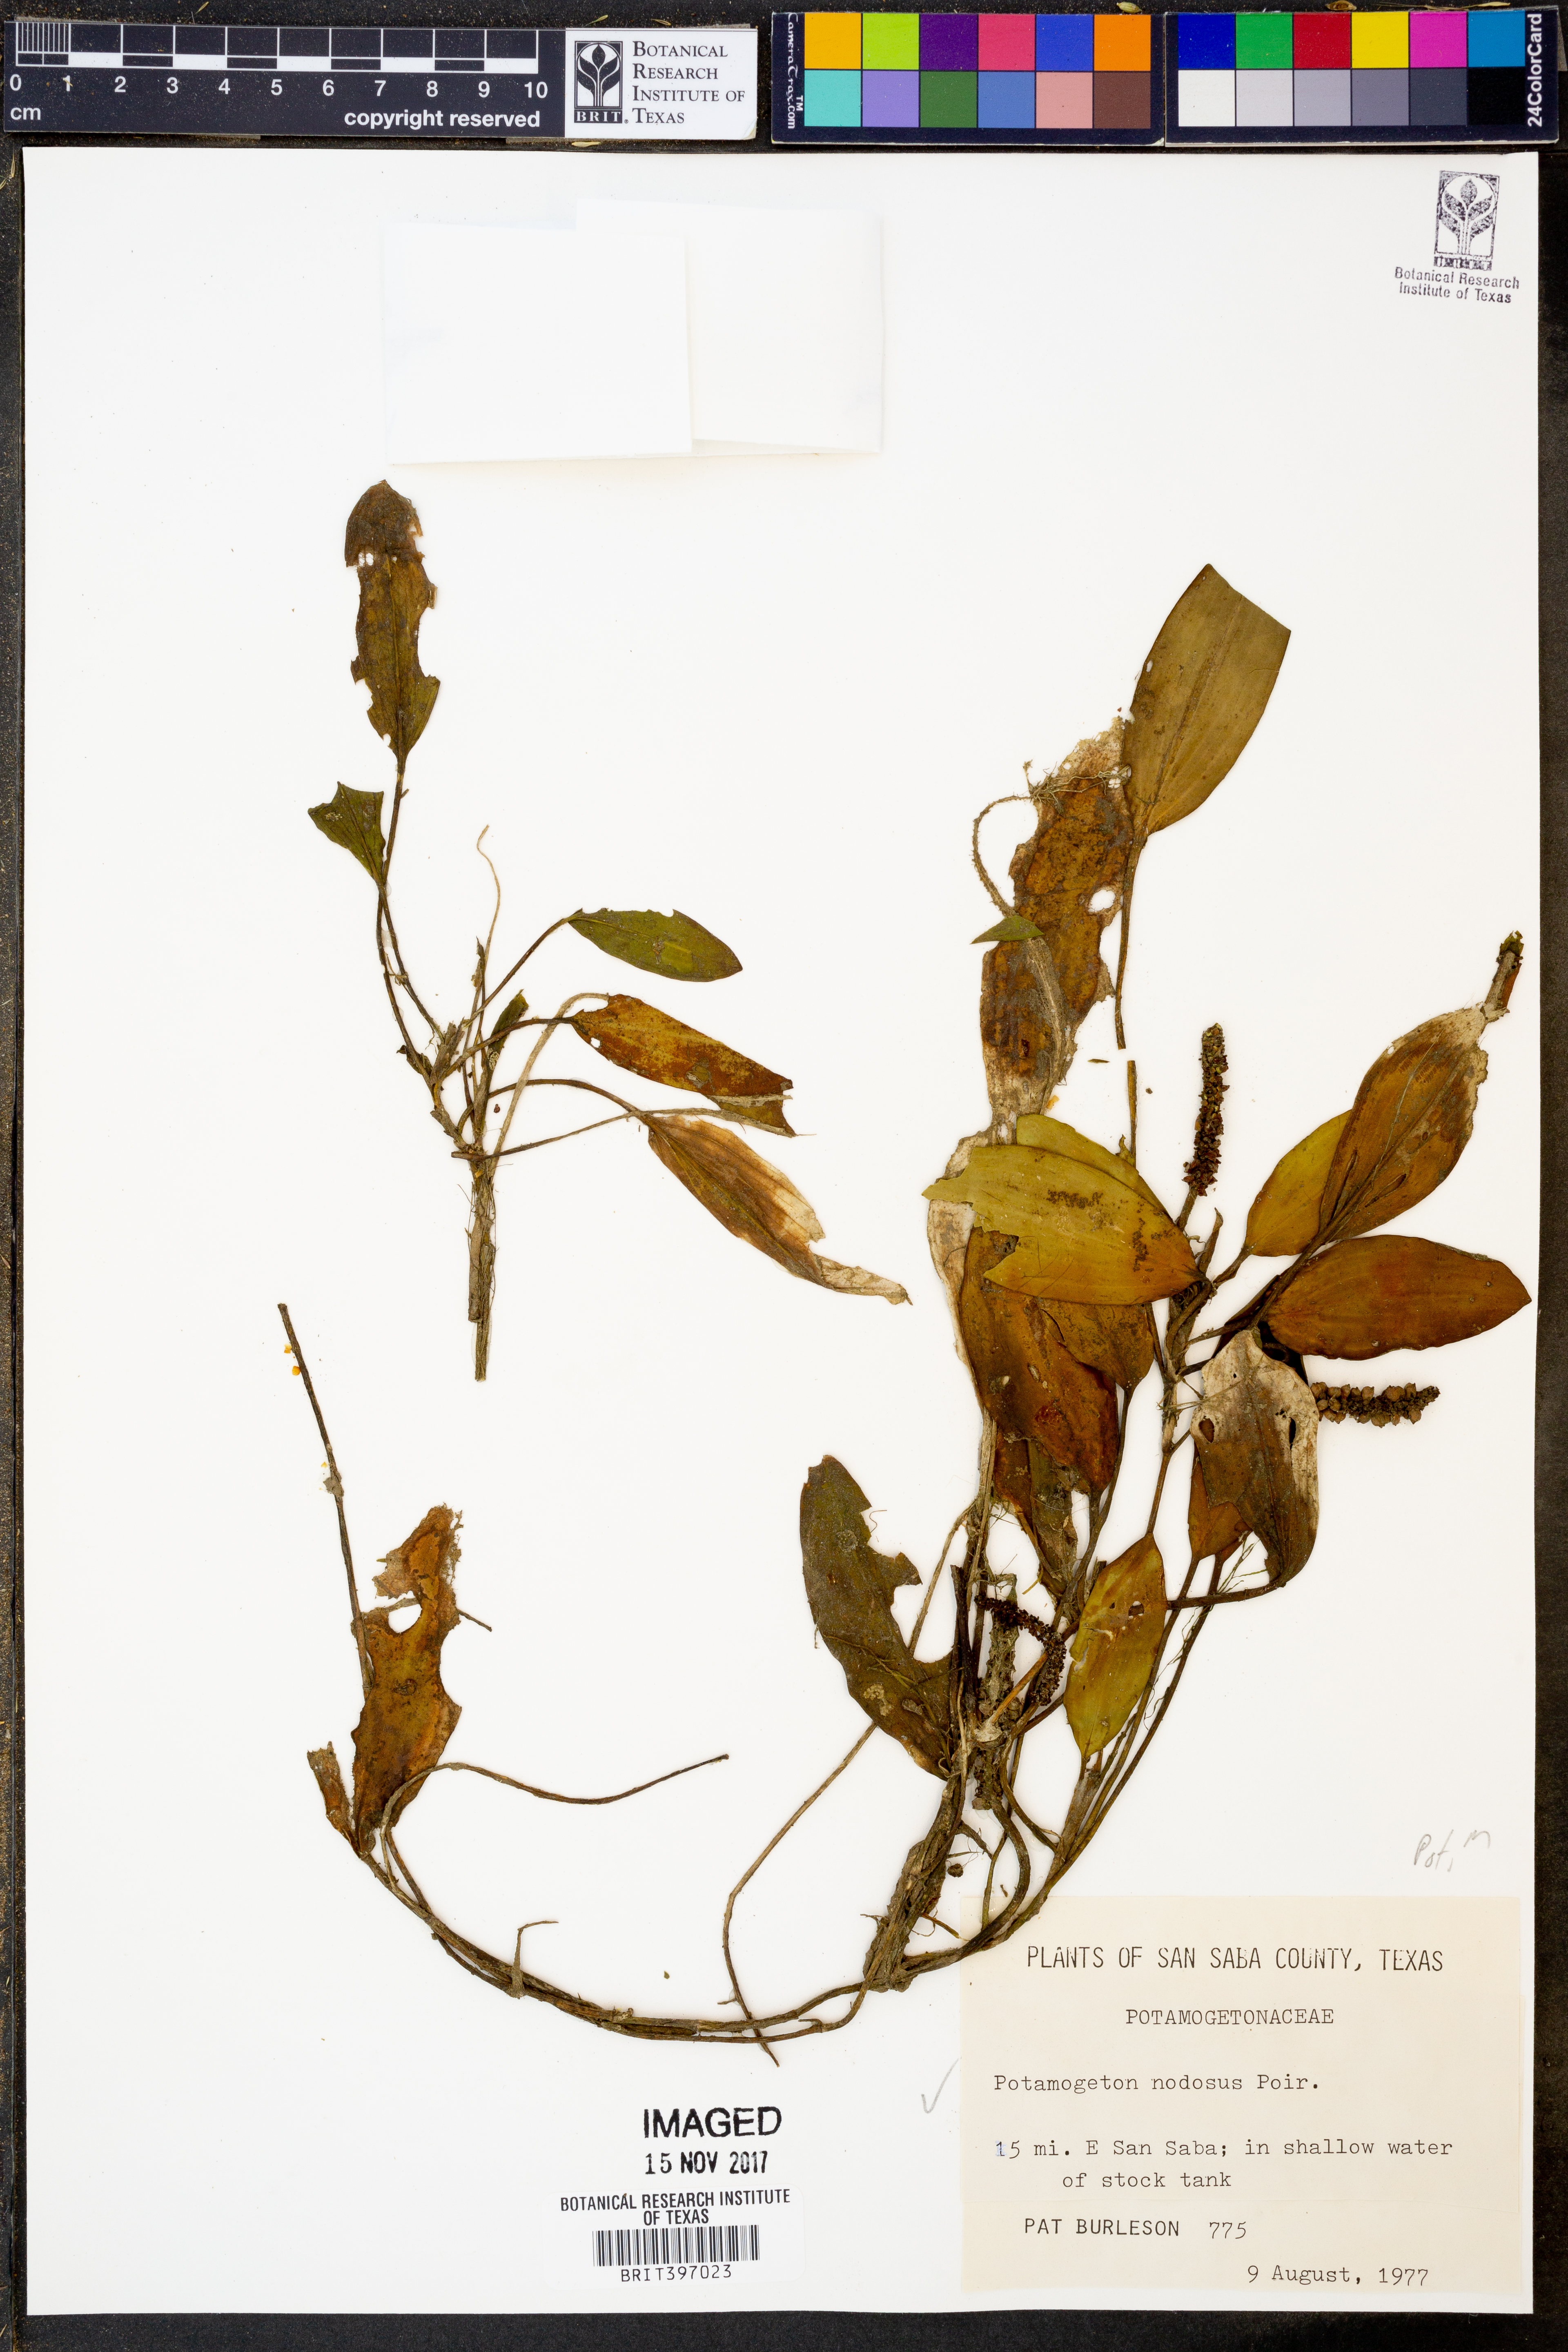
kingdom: Plantae
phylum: Tracheophyta
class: Liliopsida
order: Alismatales
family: Potamogetonaceae
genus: Potamogeton
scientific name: Potamogeton nodosus
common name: Loddon pondweed
